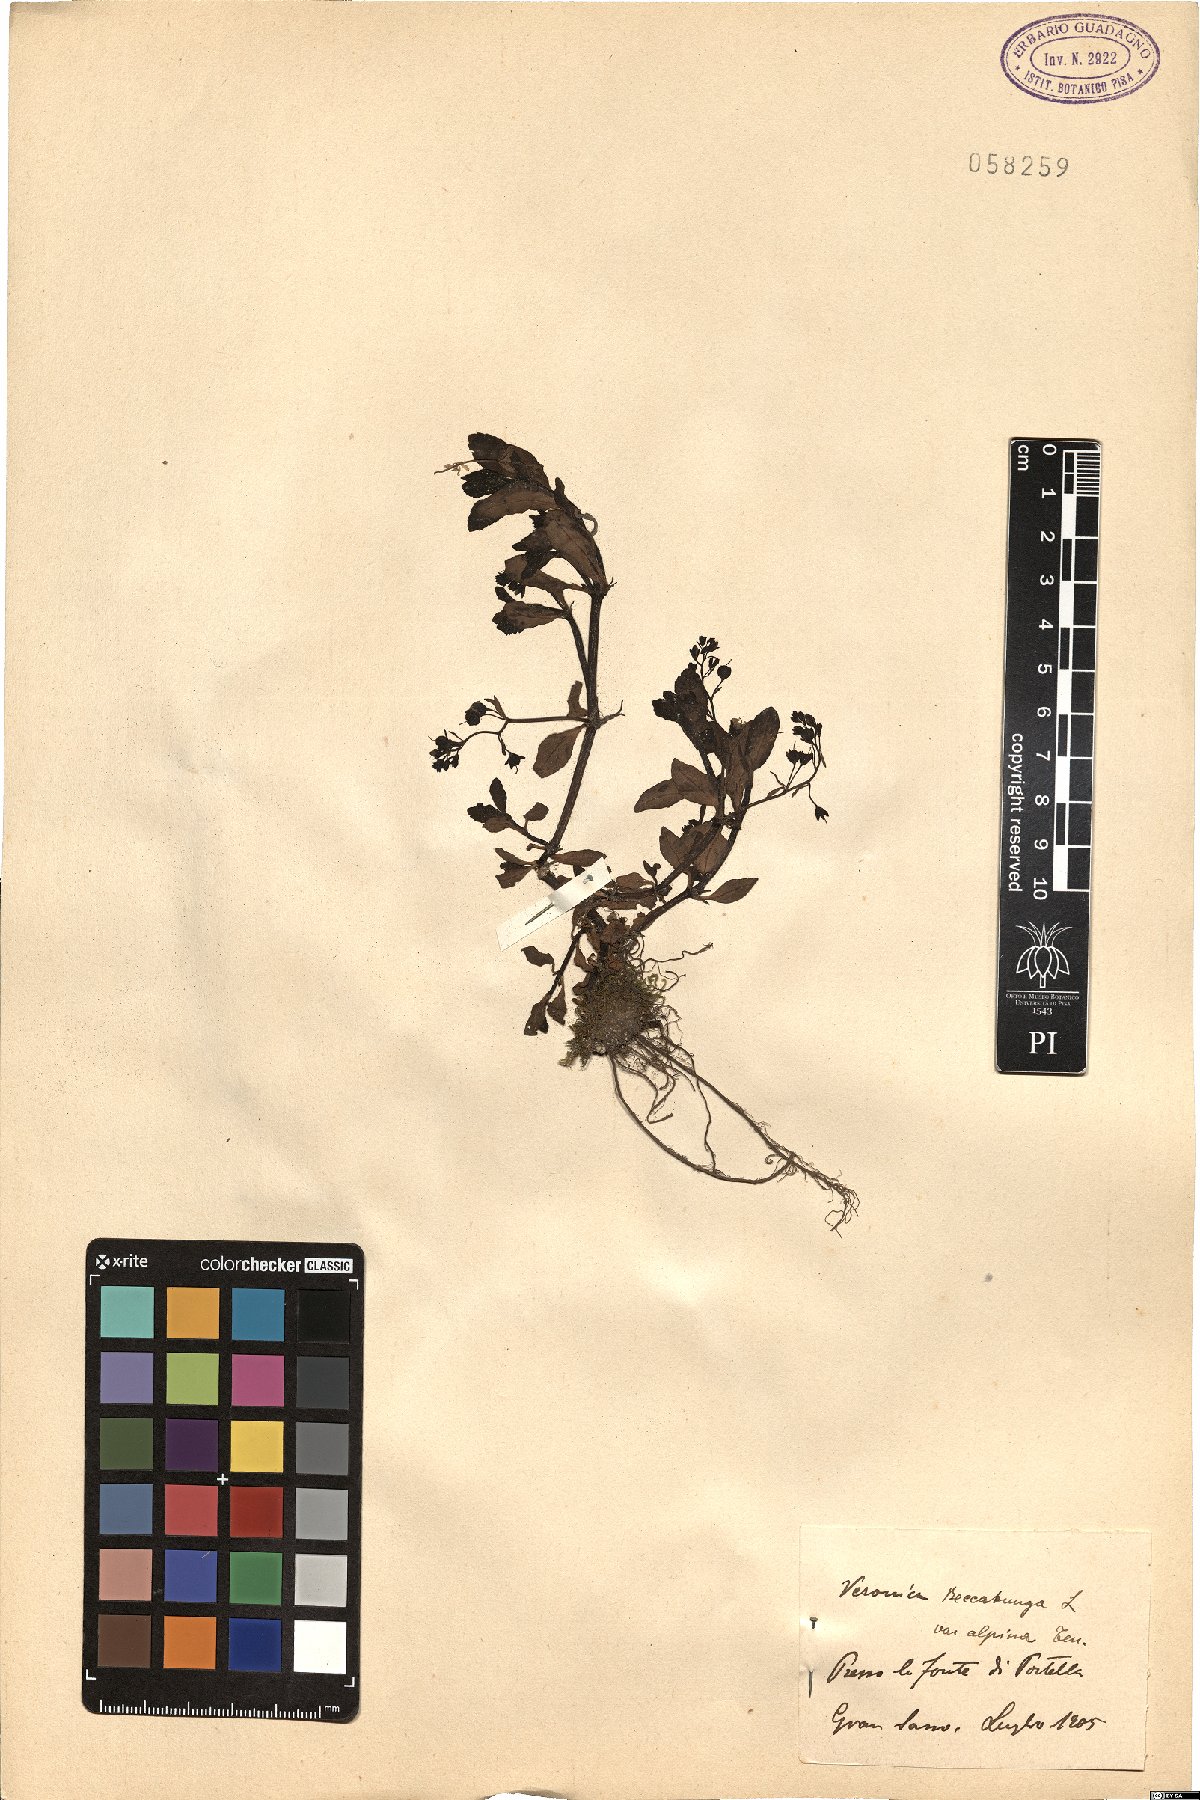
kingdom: Plantae
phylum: Tracheophyta
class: Magnoliopsida
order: Lamiales
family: Plantaginaceae
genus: Veronica
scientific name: Veronica beccabunga
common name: Brooklime
